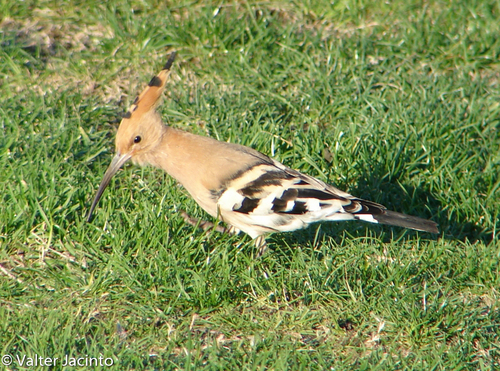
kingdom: Animalia
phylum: Chordata
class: Aves
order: Bucerotiformes
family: Upupidae
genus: Upupa
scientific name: Upupa epops
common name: Eurasian hoopoe
